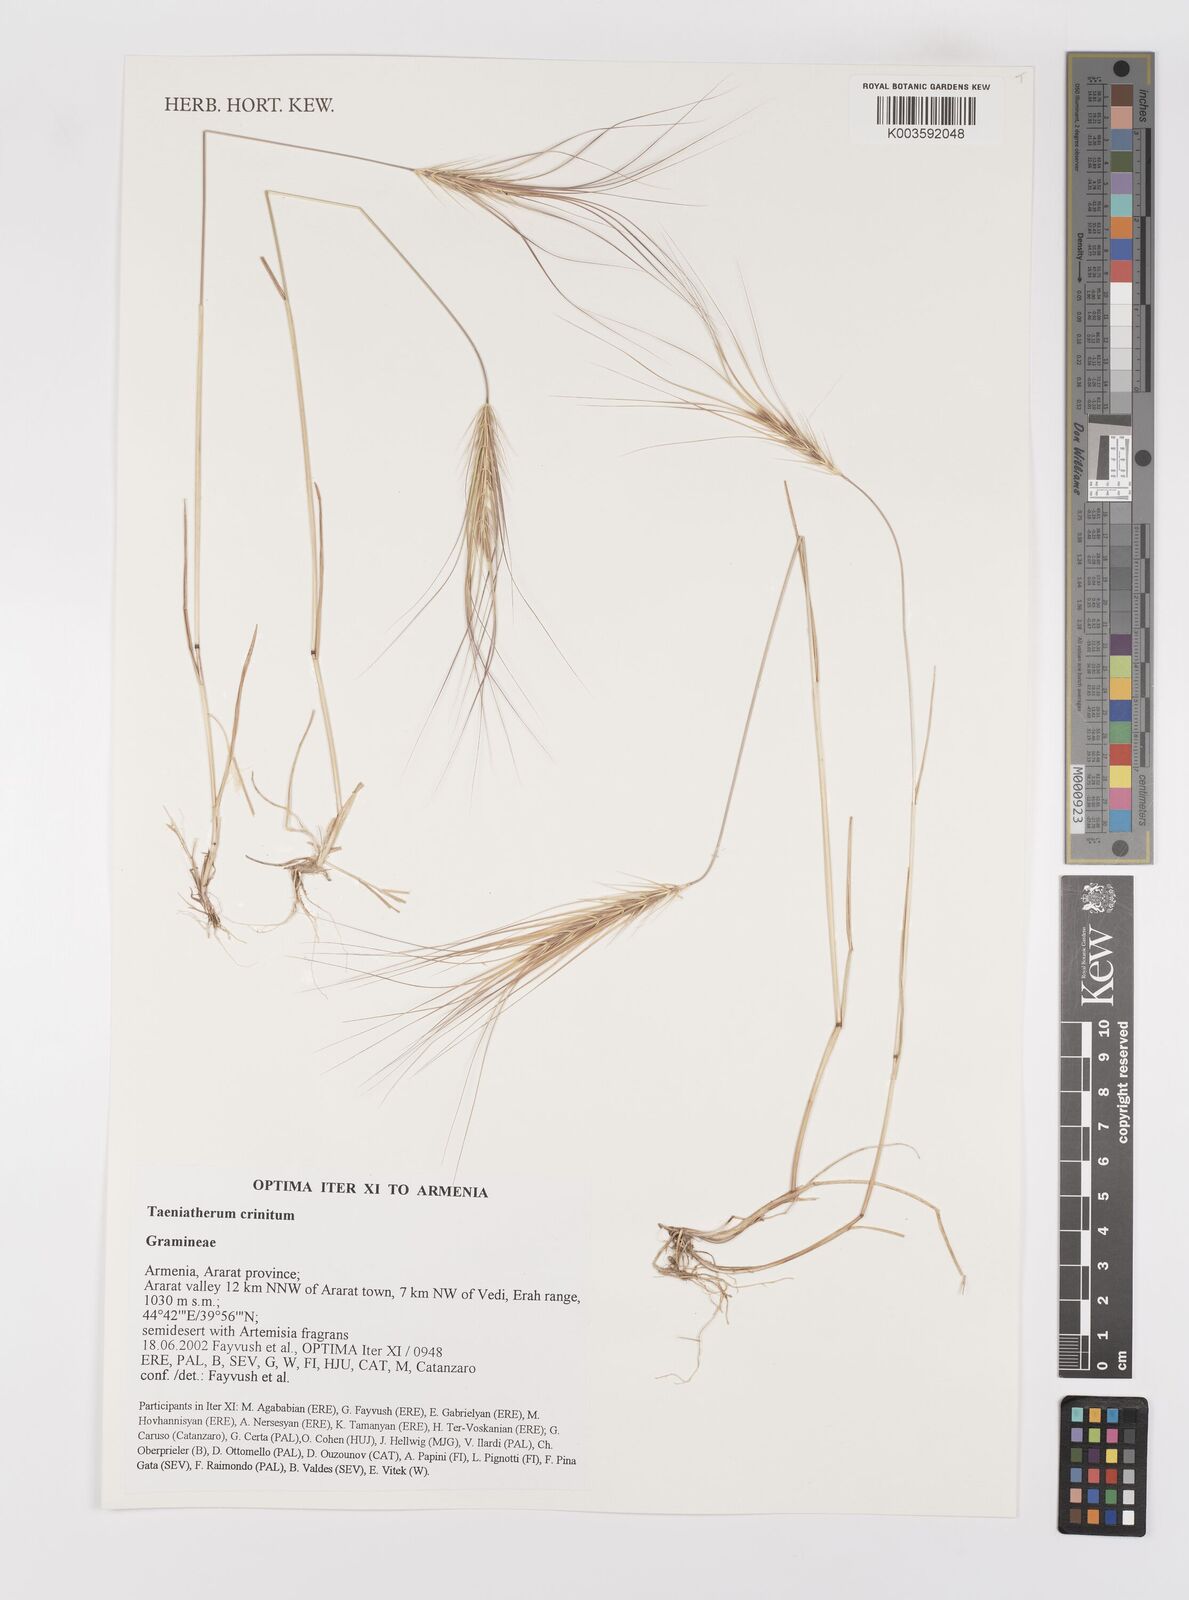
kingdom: Plantae
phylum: Tracheophyta
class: Liliopsida
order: Poales
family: Poaceae
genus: Taeniatherum
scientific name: Taeniatherum caput-medusae
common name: Medusahead
